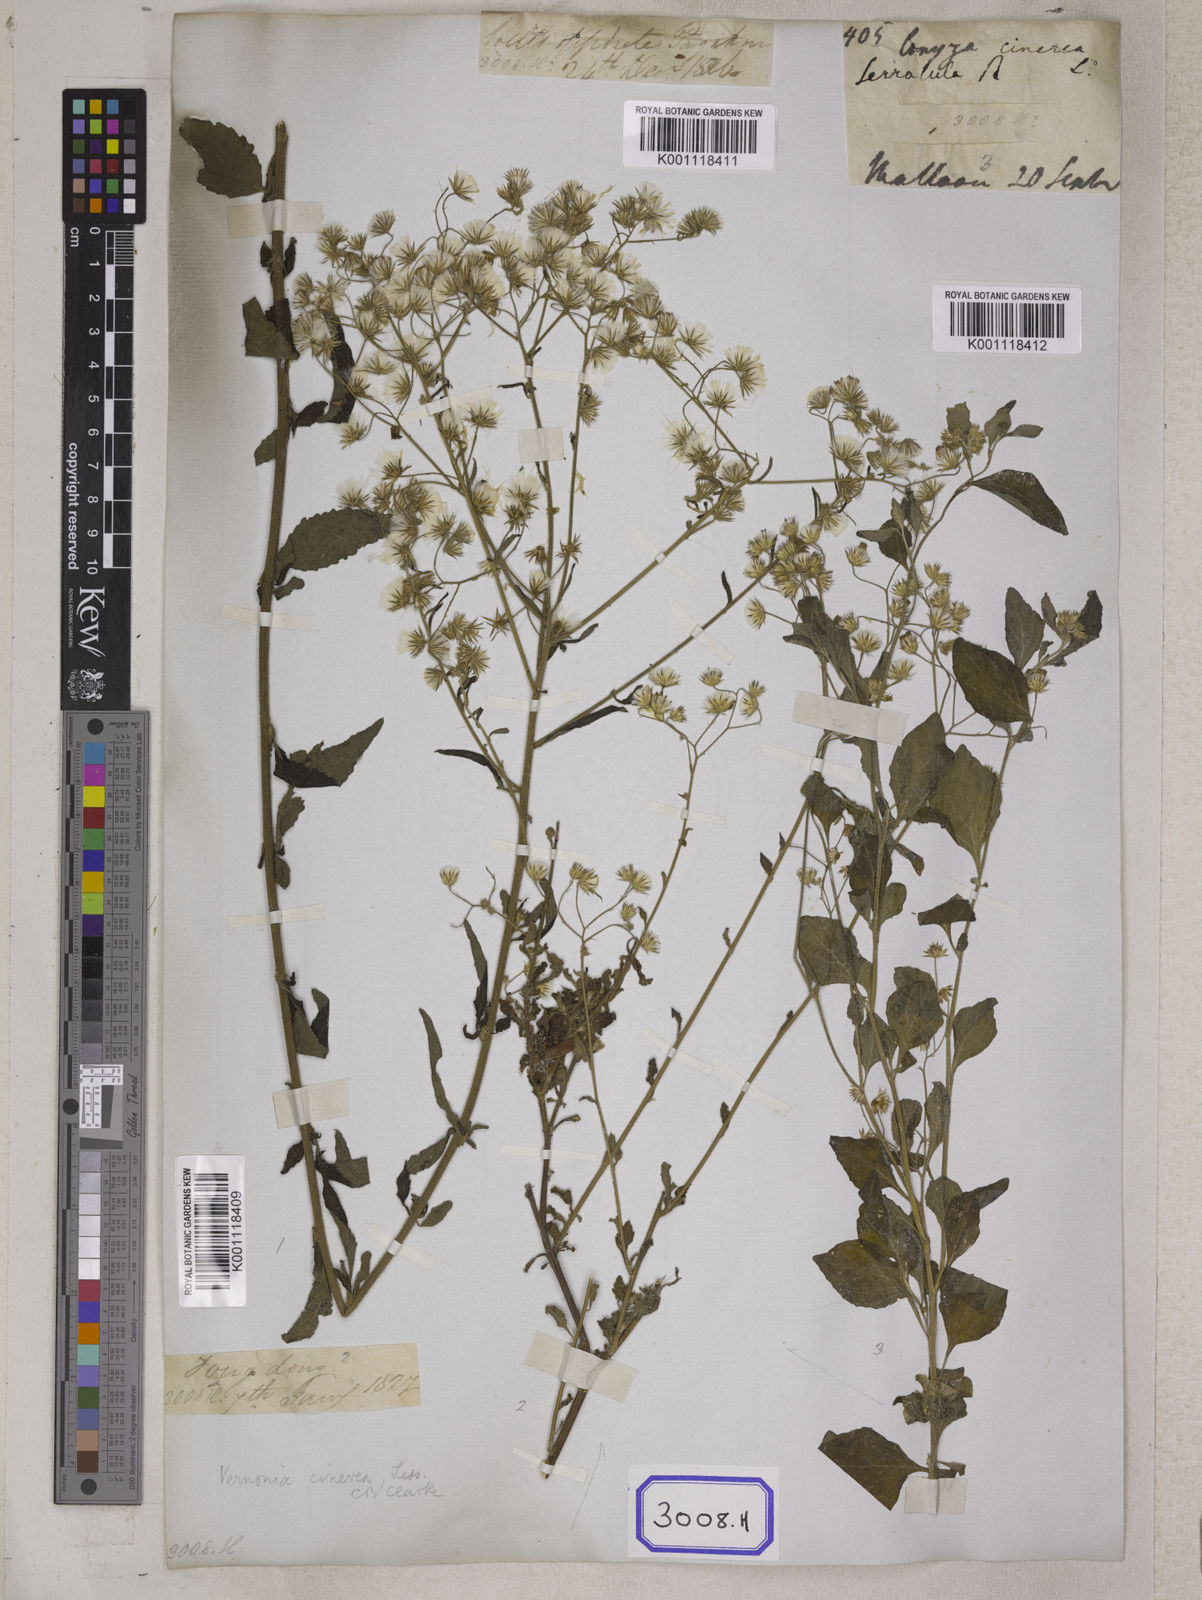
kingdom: Plantae
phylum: Tracheophyta
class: Magnoliopsida
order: Asterales
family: Asteraceae
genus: Cyanthillium
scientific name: Cyanthillium cinereum
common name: Little ironweed
